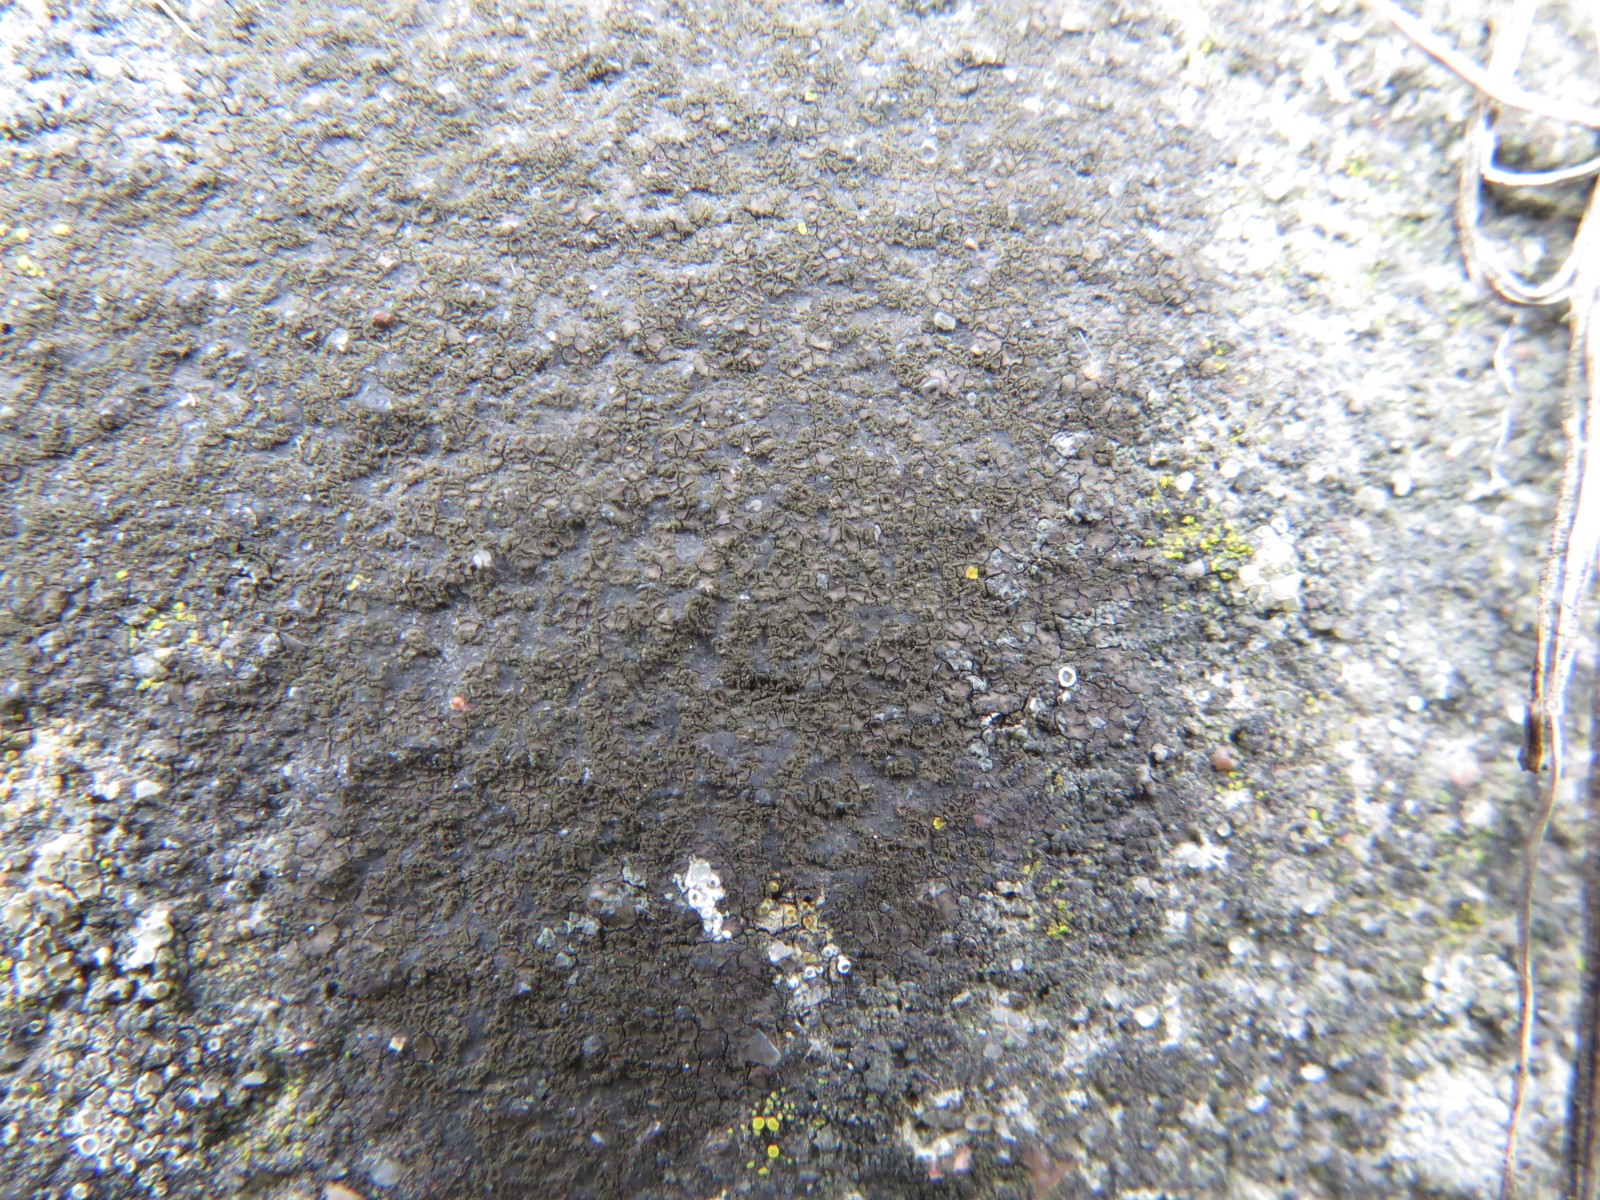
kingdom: Fungi
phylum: Ascomycota
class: Eurotiomycetes
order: Verrucariales
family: Verrucariaceae
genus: Verrucaria
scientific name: Verrucaria nigrescens
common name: sortbrun vortelav
